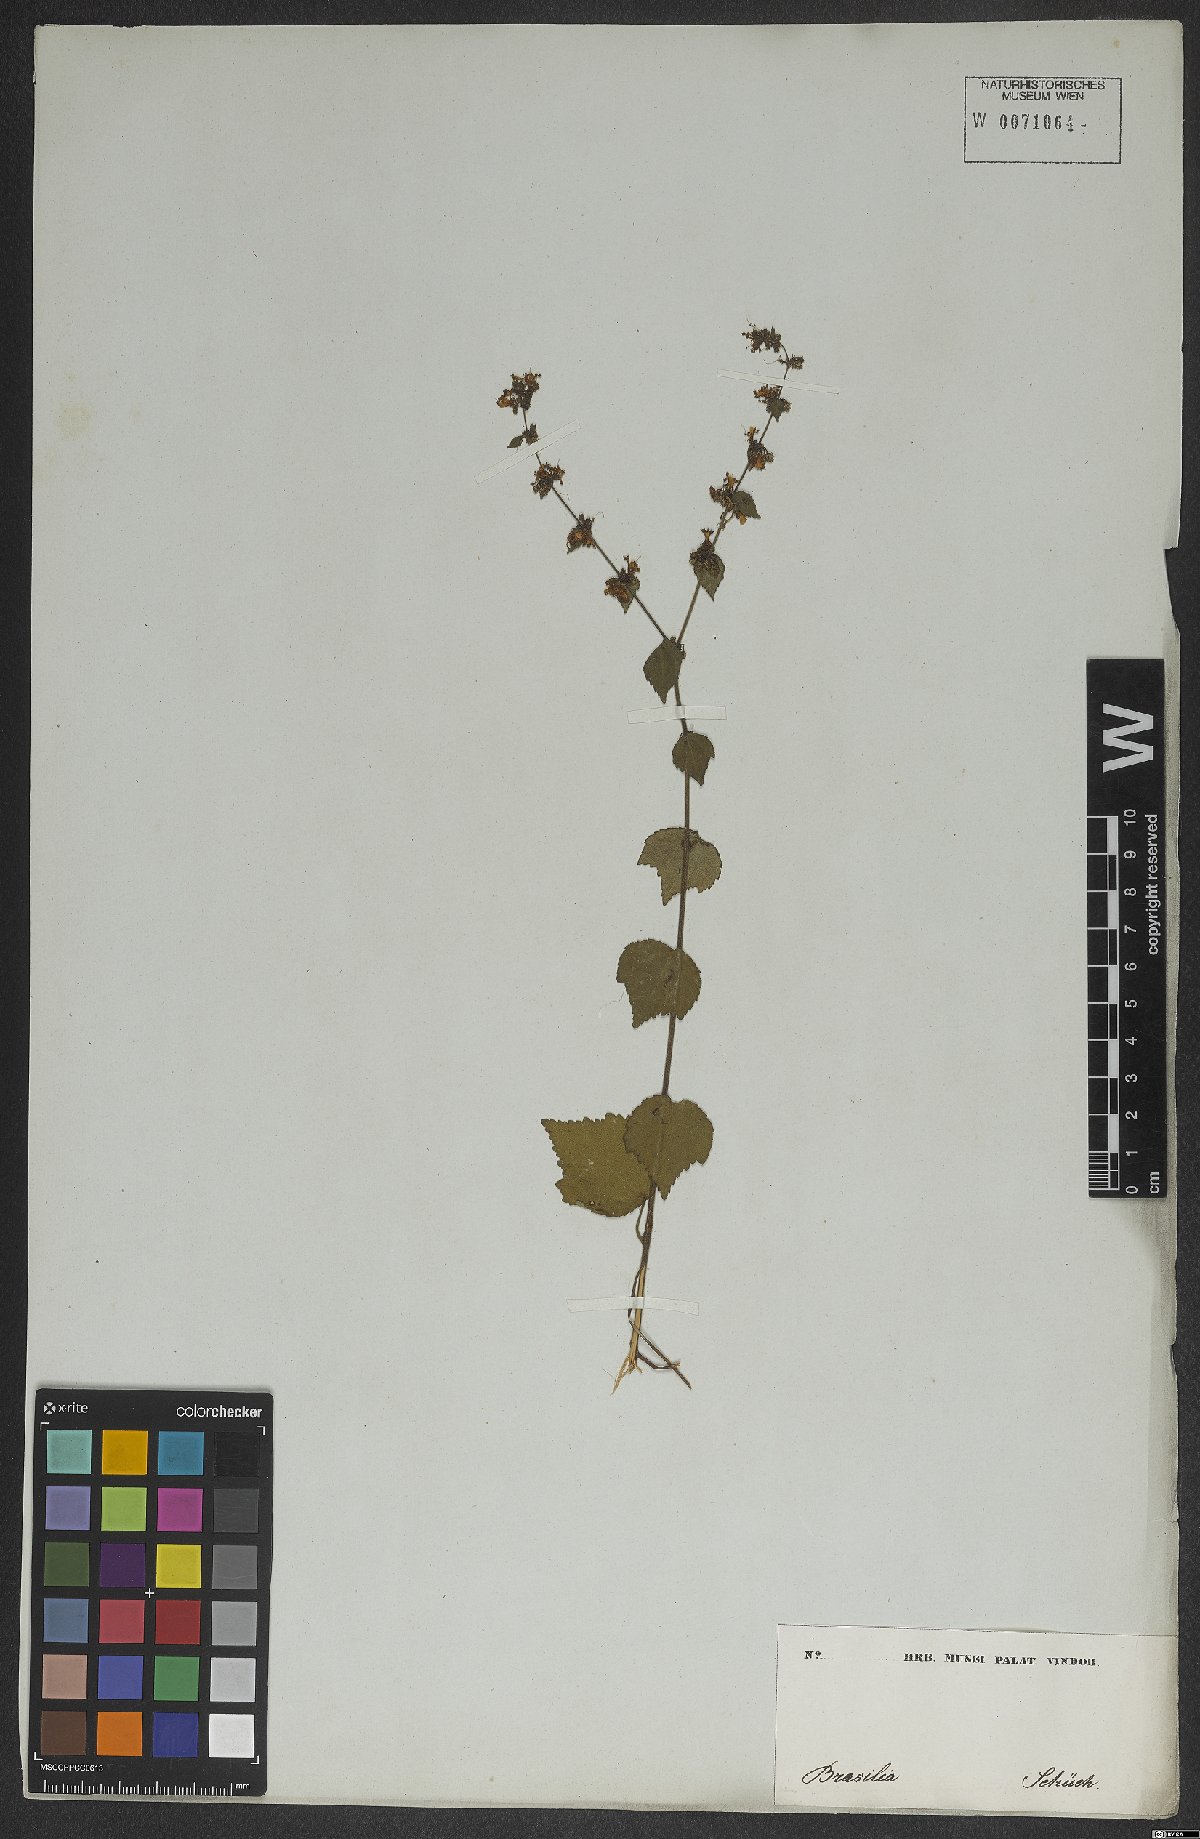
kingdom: Plantae
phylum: Tracheophyta
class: Magnoliopsida
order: Malvales
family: Malvaceae
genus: Triumfetta
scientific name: Triumfetta rhomboidea
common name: Diamond burbark
